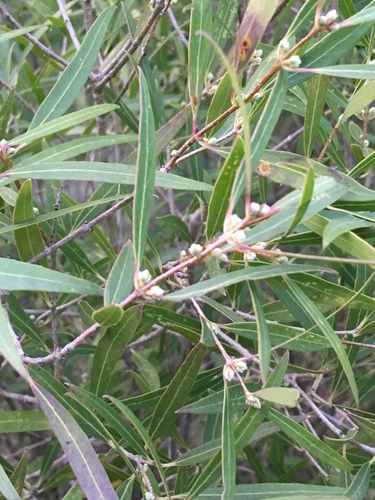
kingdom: Plantae
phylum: Tracheophyta
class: Magnoliopsida
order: Lamiales
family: Oleaceae
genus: Phillyrea
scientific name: Phillyrea angustifolia
